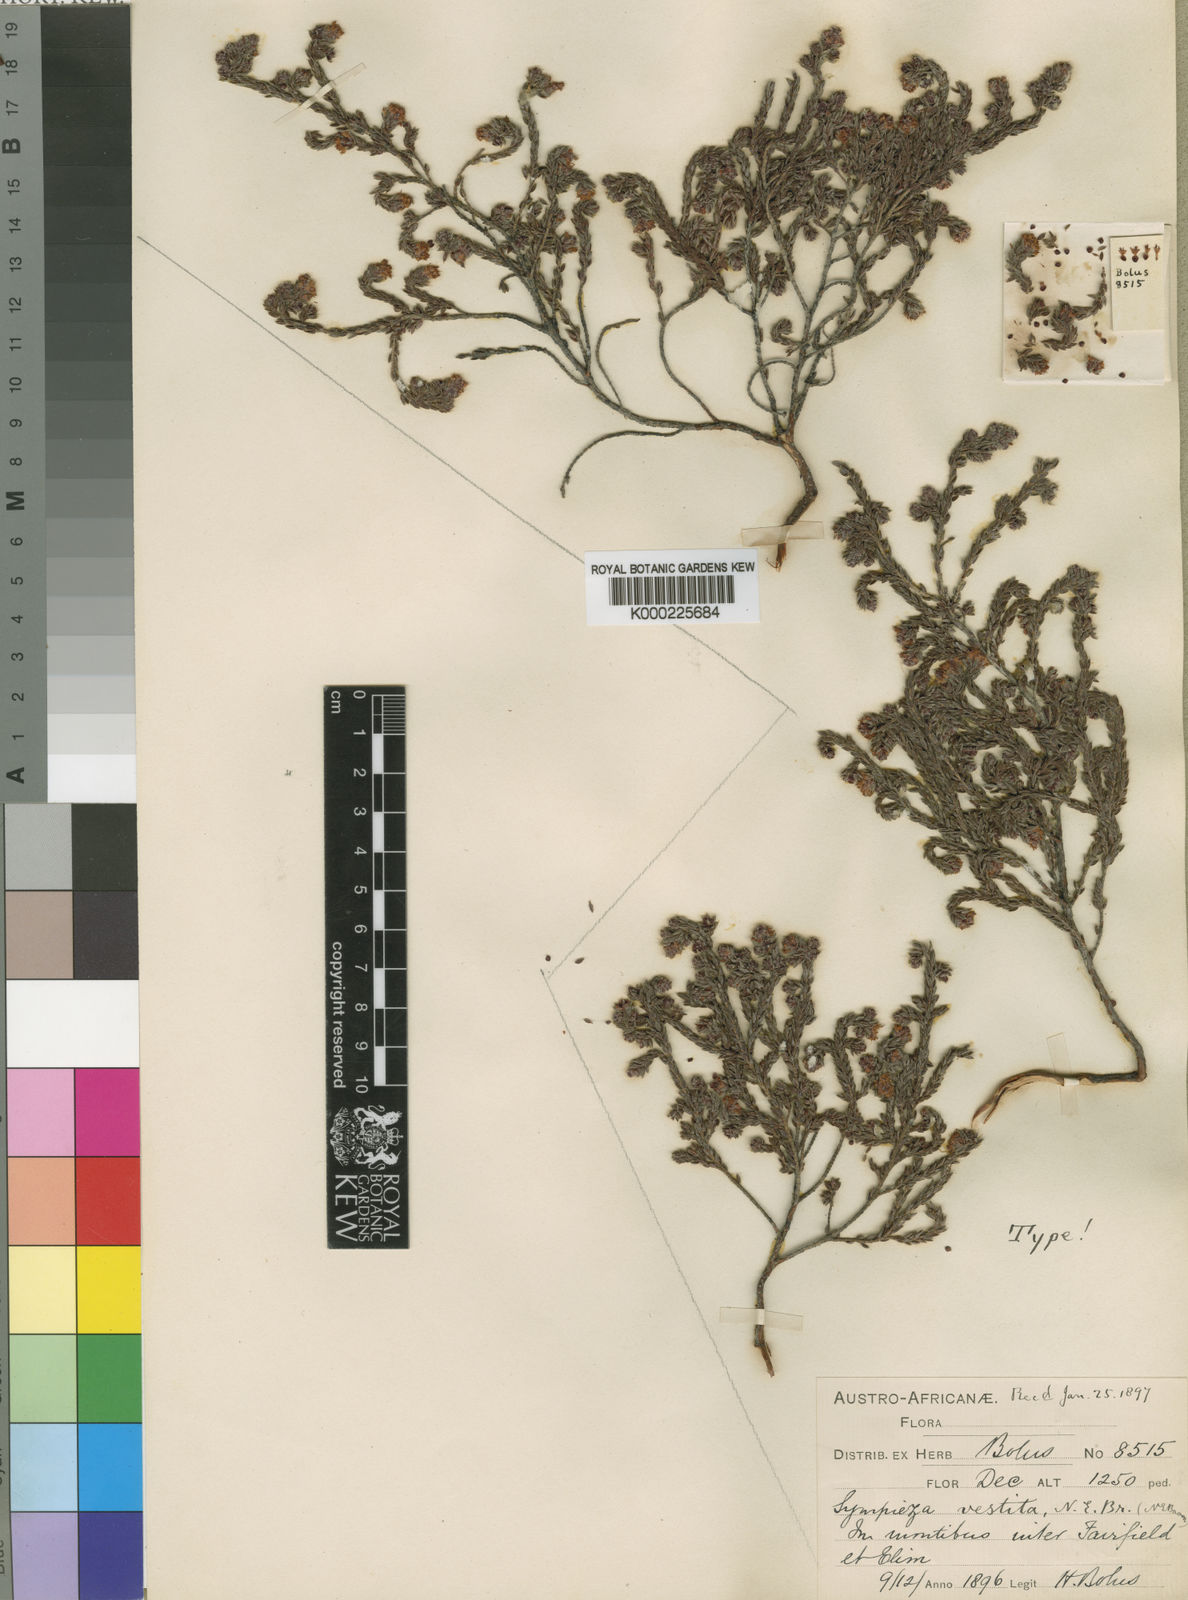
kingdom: Plantae
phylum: Tracheophyta
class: Magnoliopsida
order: Ericales
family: Ericaceae
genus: Erica
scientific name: Erica labialis
